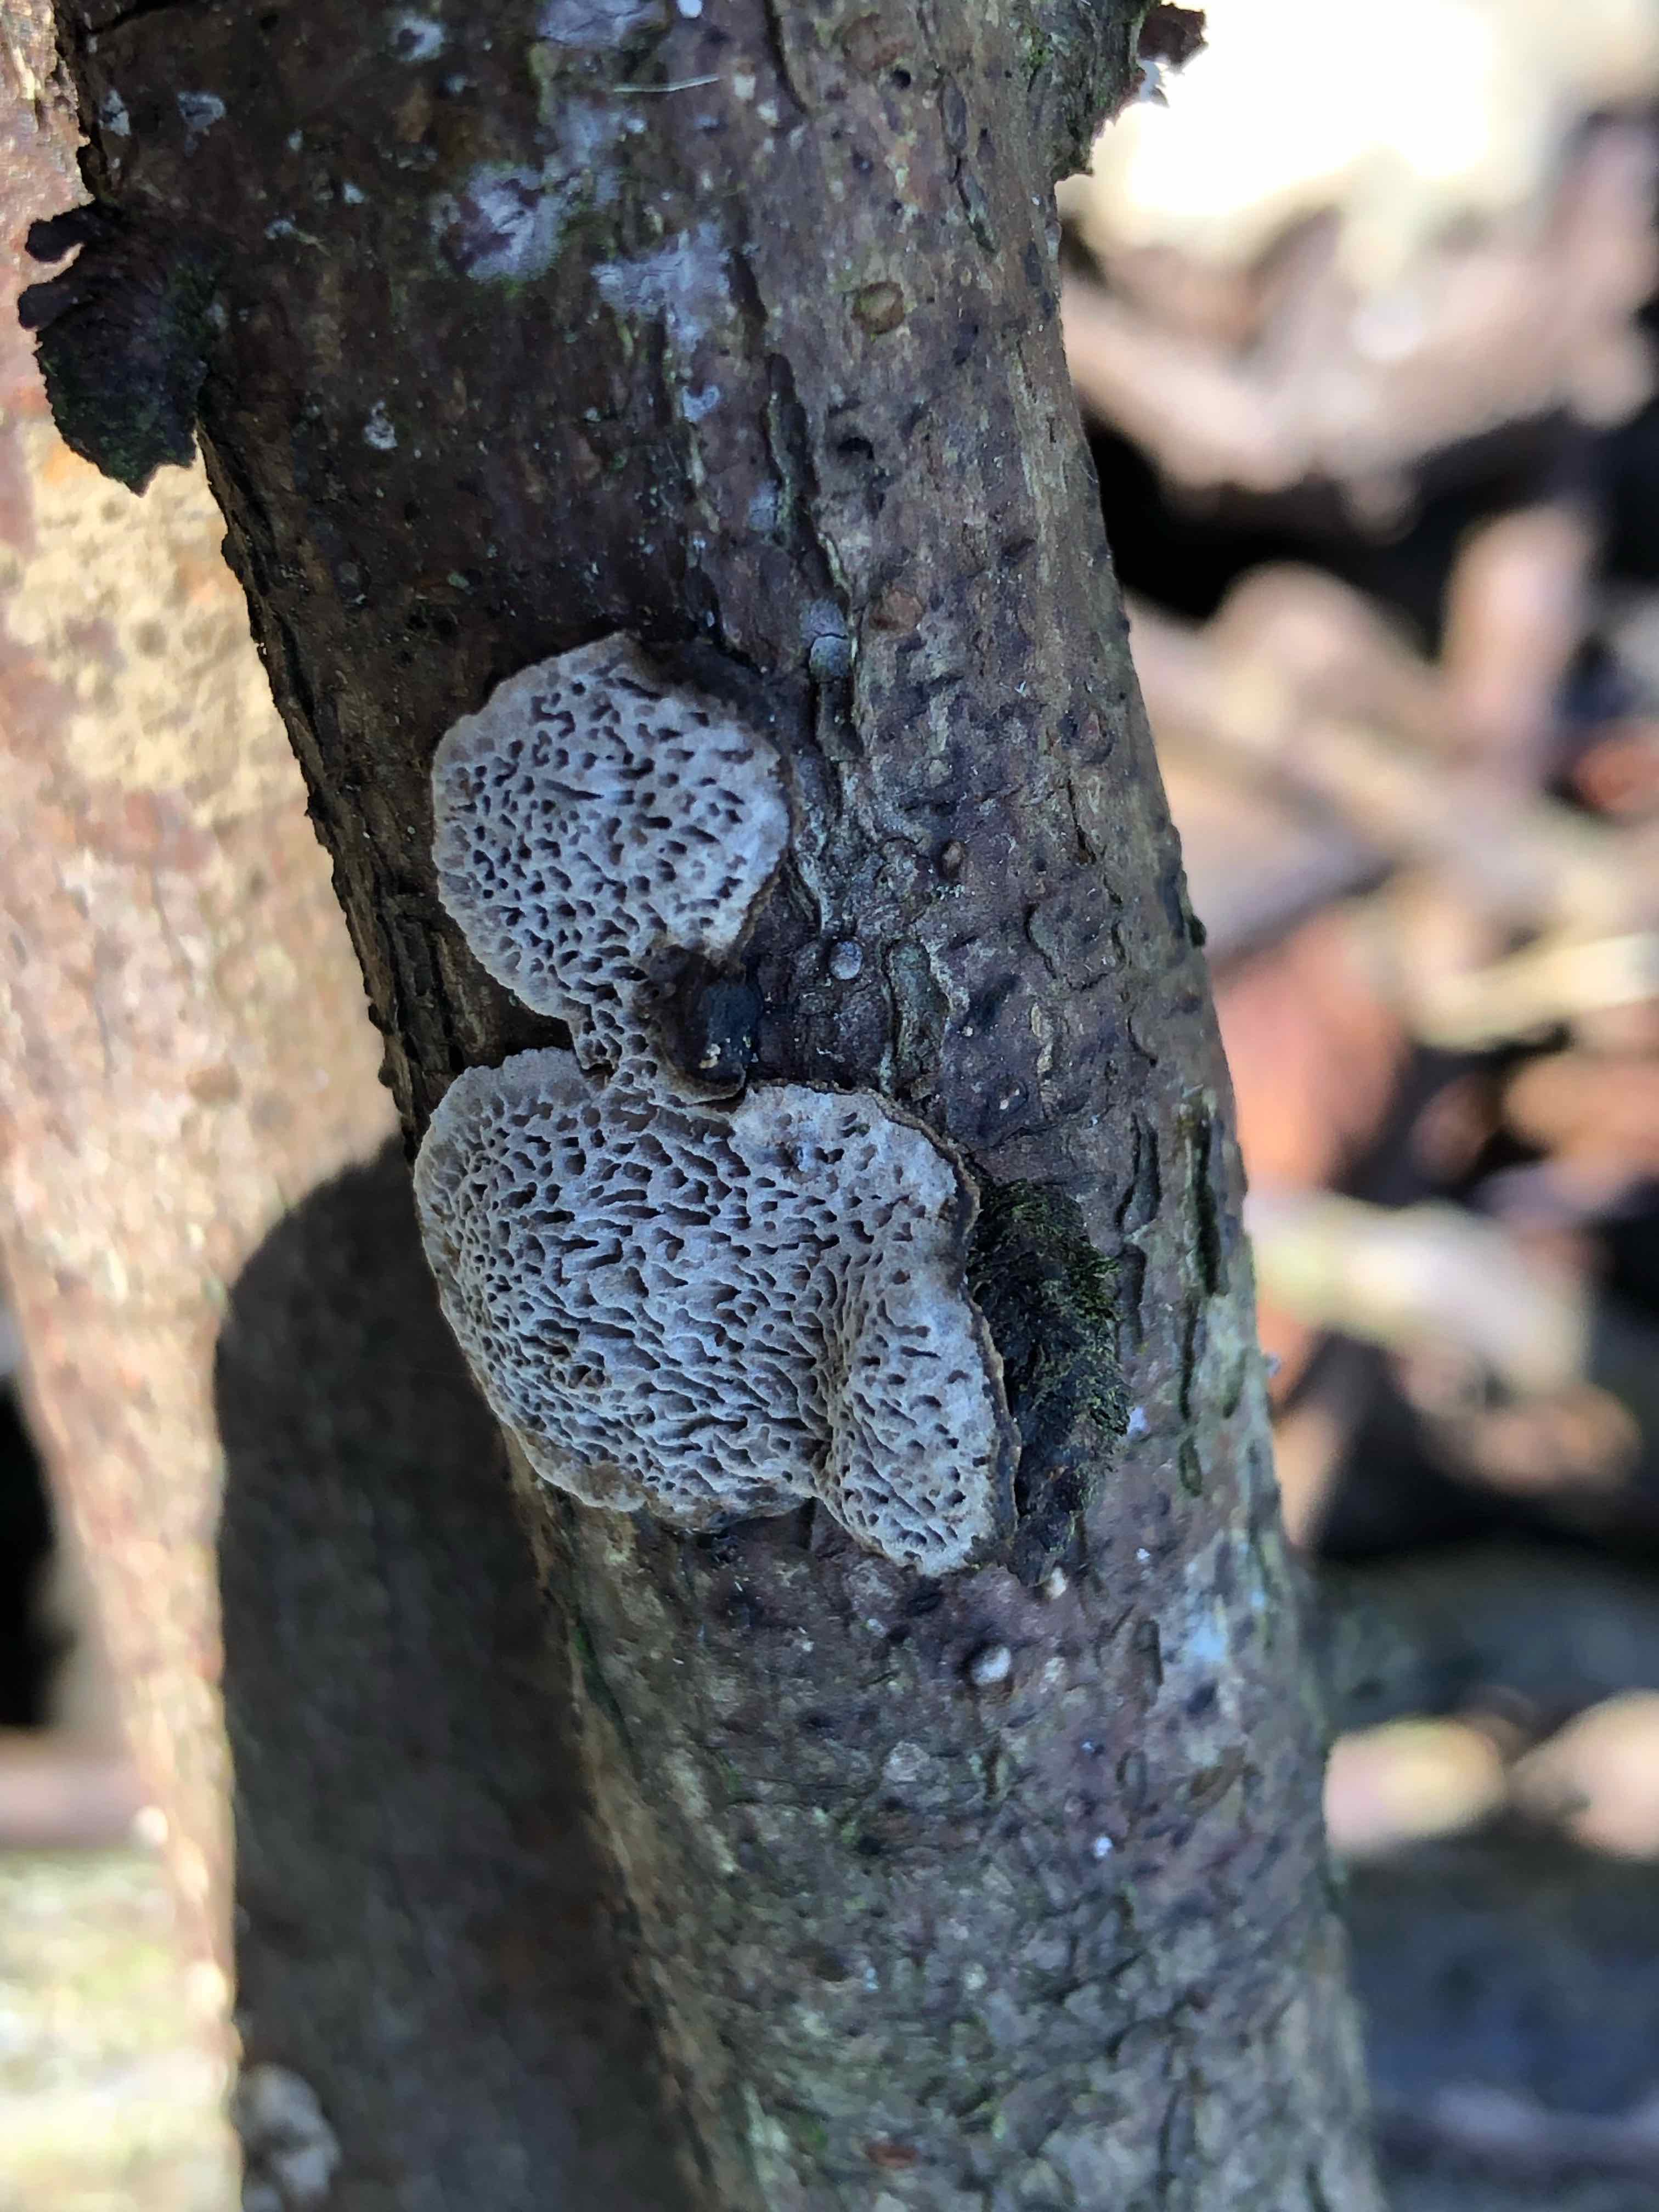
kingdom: Fungi
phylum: Basidiomycota
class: Agaricomycetes
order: Polyporales
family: Polyporaceae
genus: Podofomes
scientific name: Podofomes mollis
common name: blød begporesvamp
